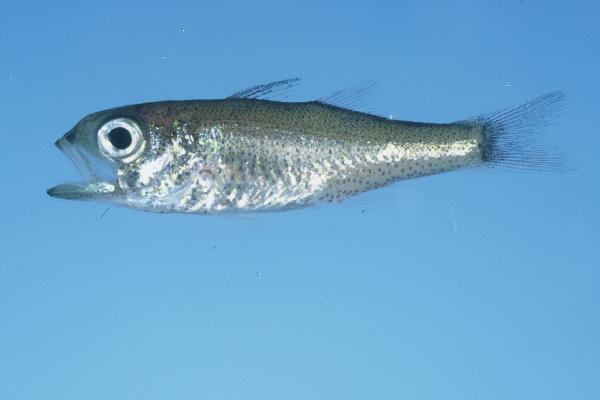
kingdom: Animalia
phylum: Chordata
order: Perciformes
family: Scombropidae
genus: Scombrops
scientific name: Scombrops boops
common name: Gnomefish
